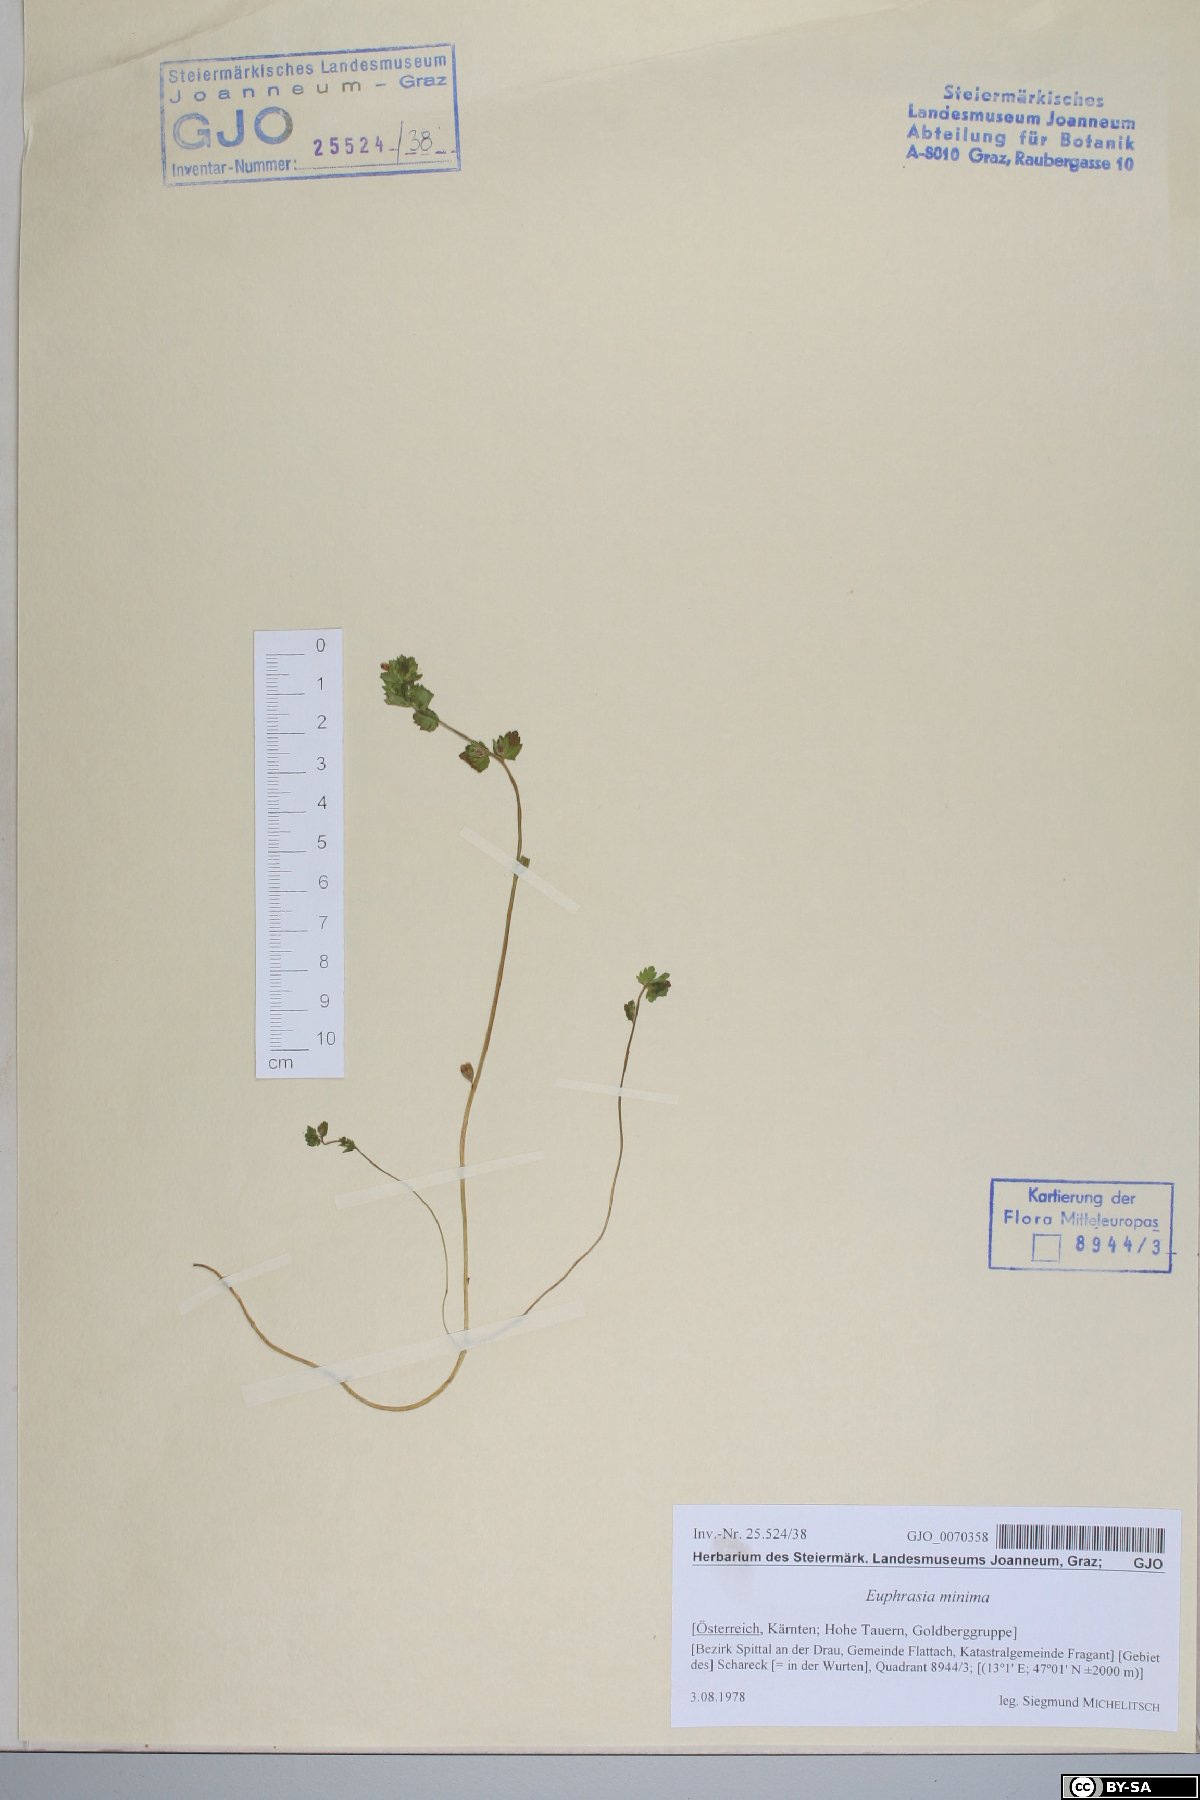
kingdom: Plantae
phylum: Tracheophyta
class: Magnoliopsida
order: Lamiales
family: Orobanchaceae
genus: Euphrasia
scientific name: Euphrasia minima
